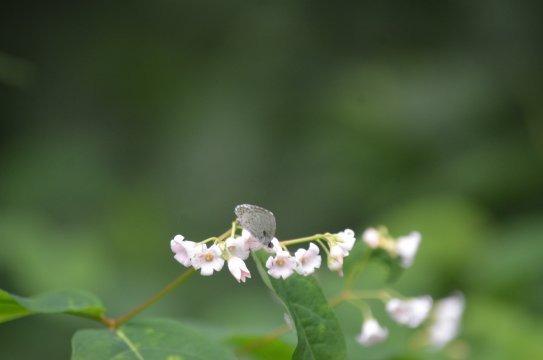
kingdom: Animalia
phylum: Arthropoda
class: Insecta
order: Lepidoptera
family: Hesperiidae
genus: Polites
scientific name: Polites
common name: Long Dash Skipper
